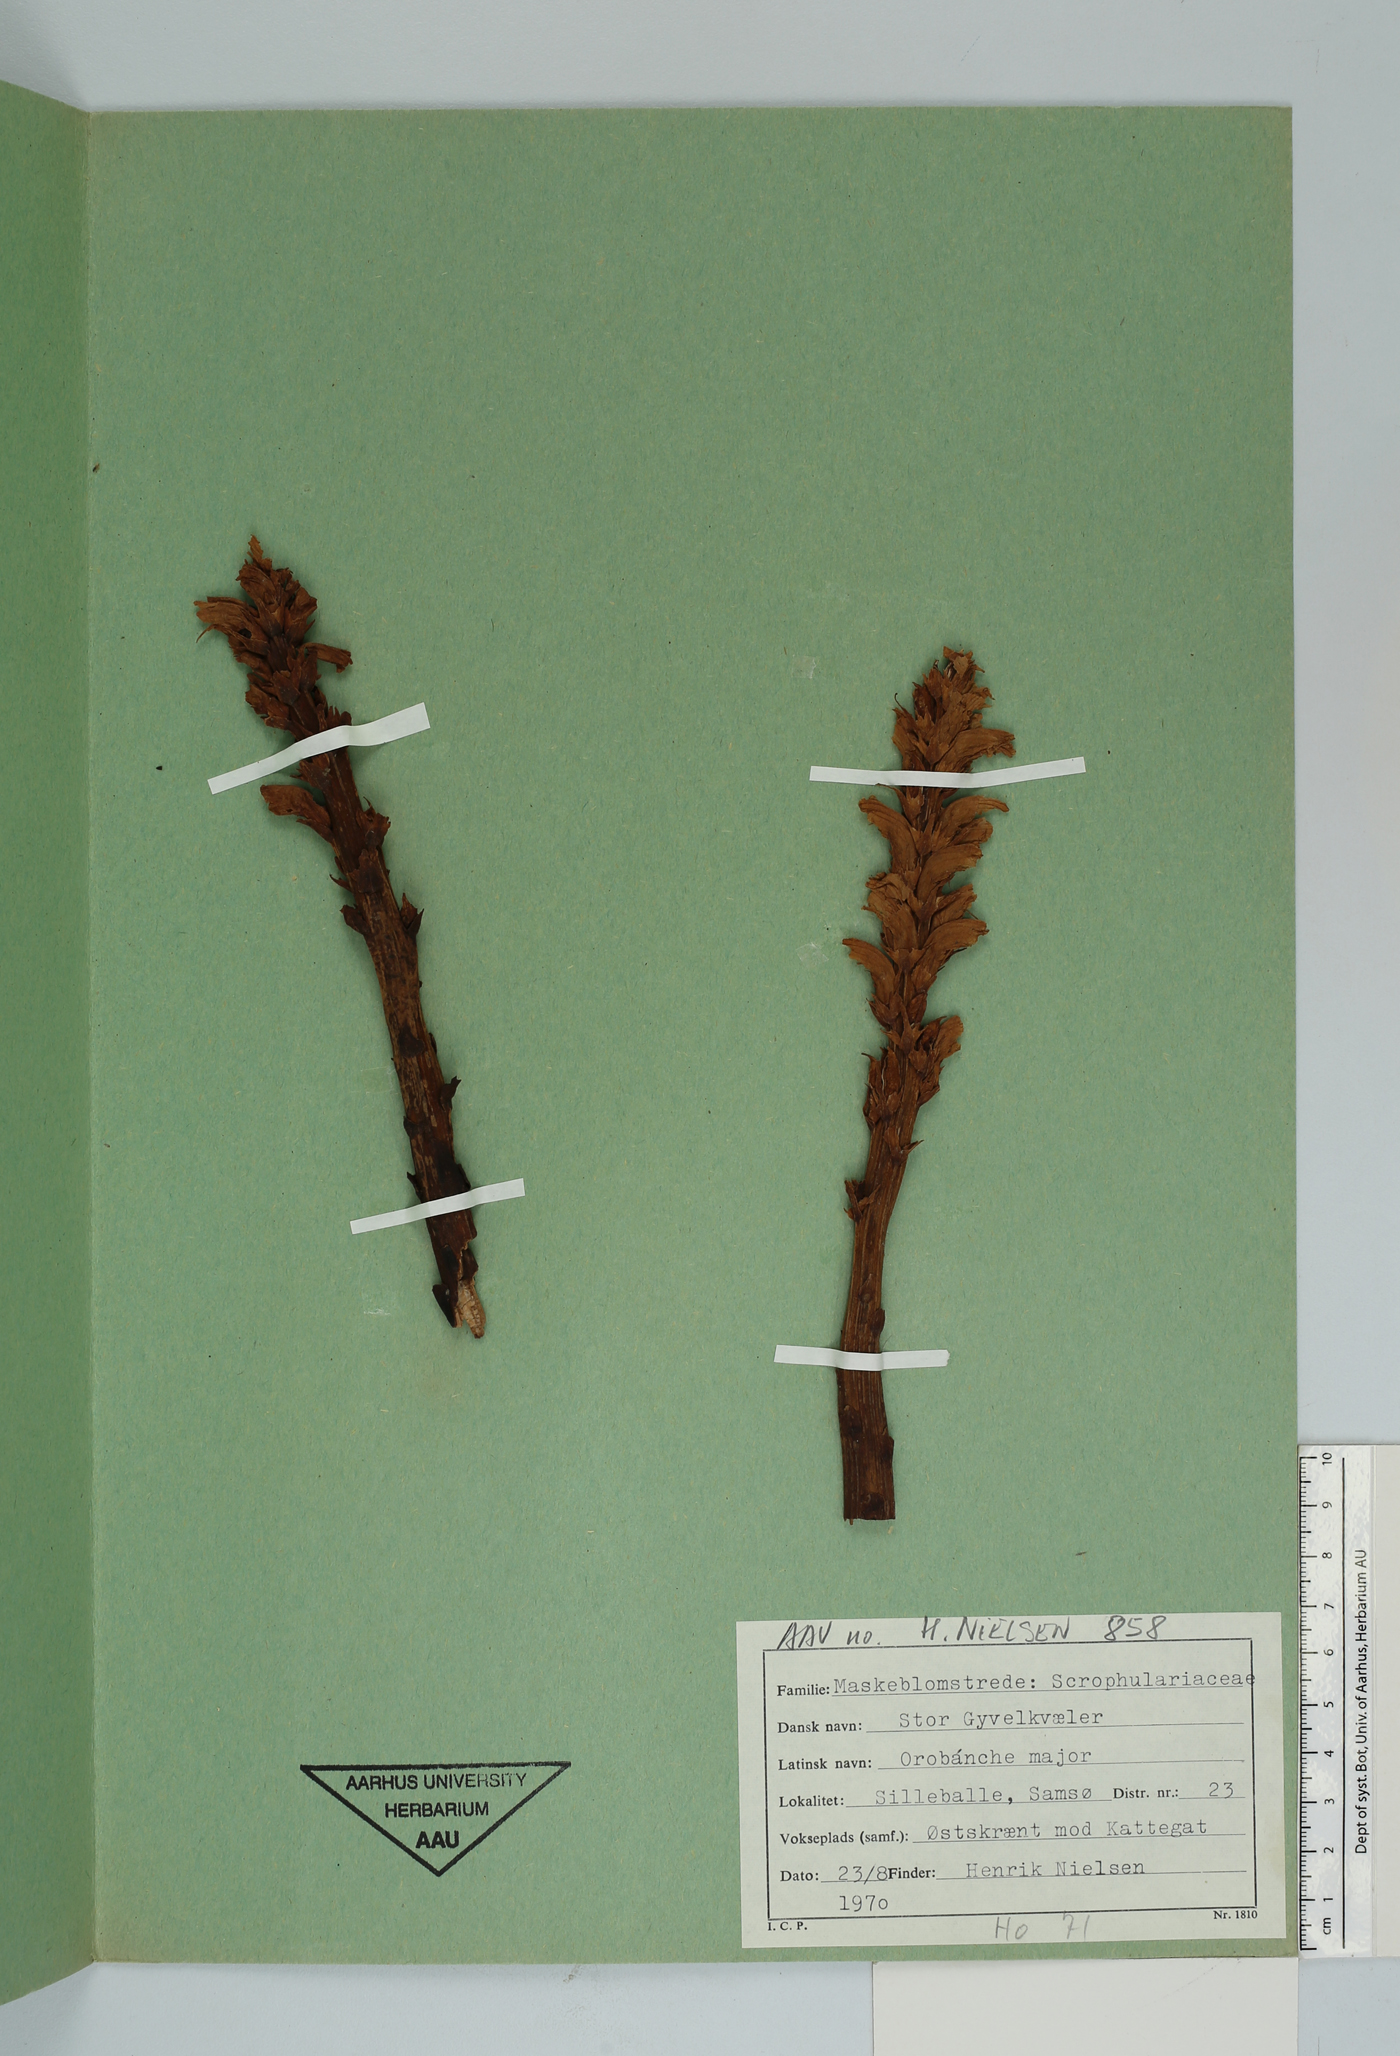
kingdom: Plantae
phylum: Tracheophyta
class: Magnoliopsida
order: Lamiales
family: Orobanchaceae
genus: Orobanche
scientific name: Orobanche elatior
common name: Knapweed broomrape
